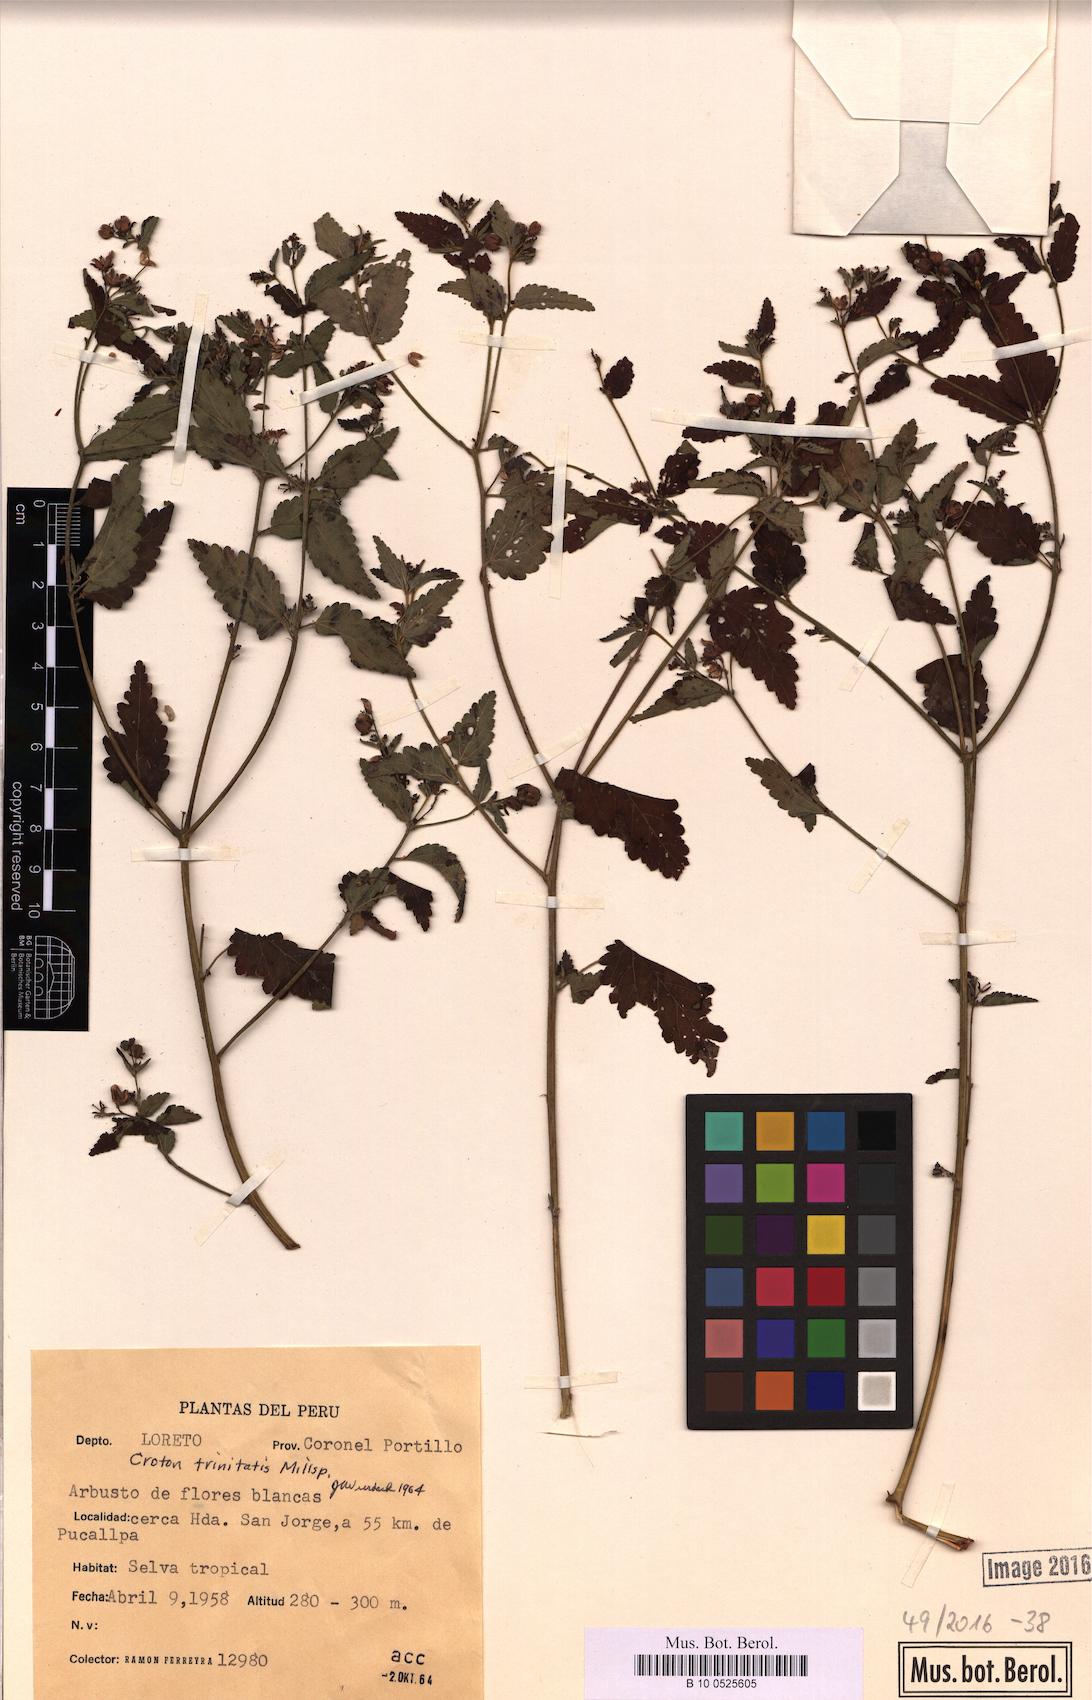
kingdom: Plantae
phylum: Tracheophyta
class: Magnoliopsida
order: Malpighiales
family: Euphorbiaceae
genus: Croton
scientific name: Croton trinitatis
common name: Roadside croton
